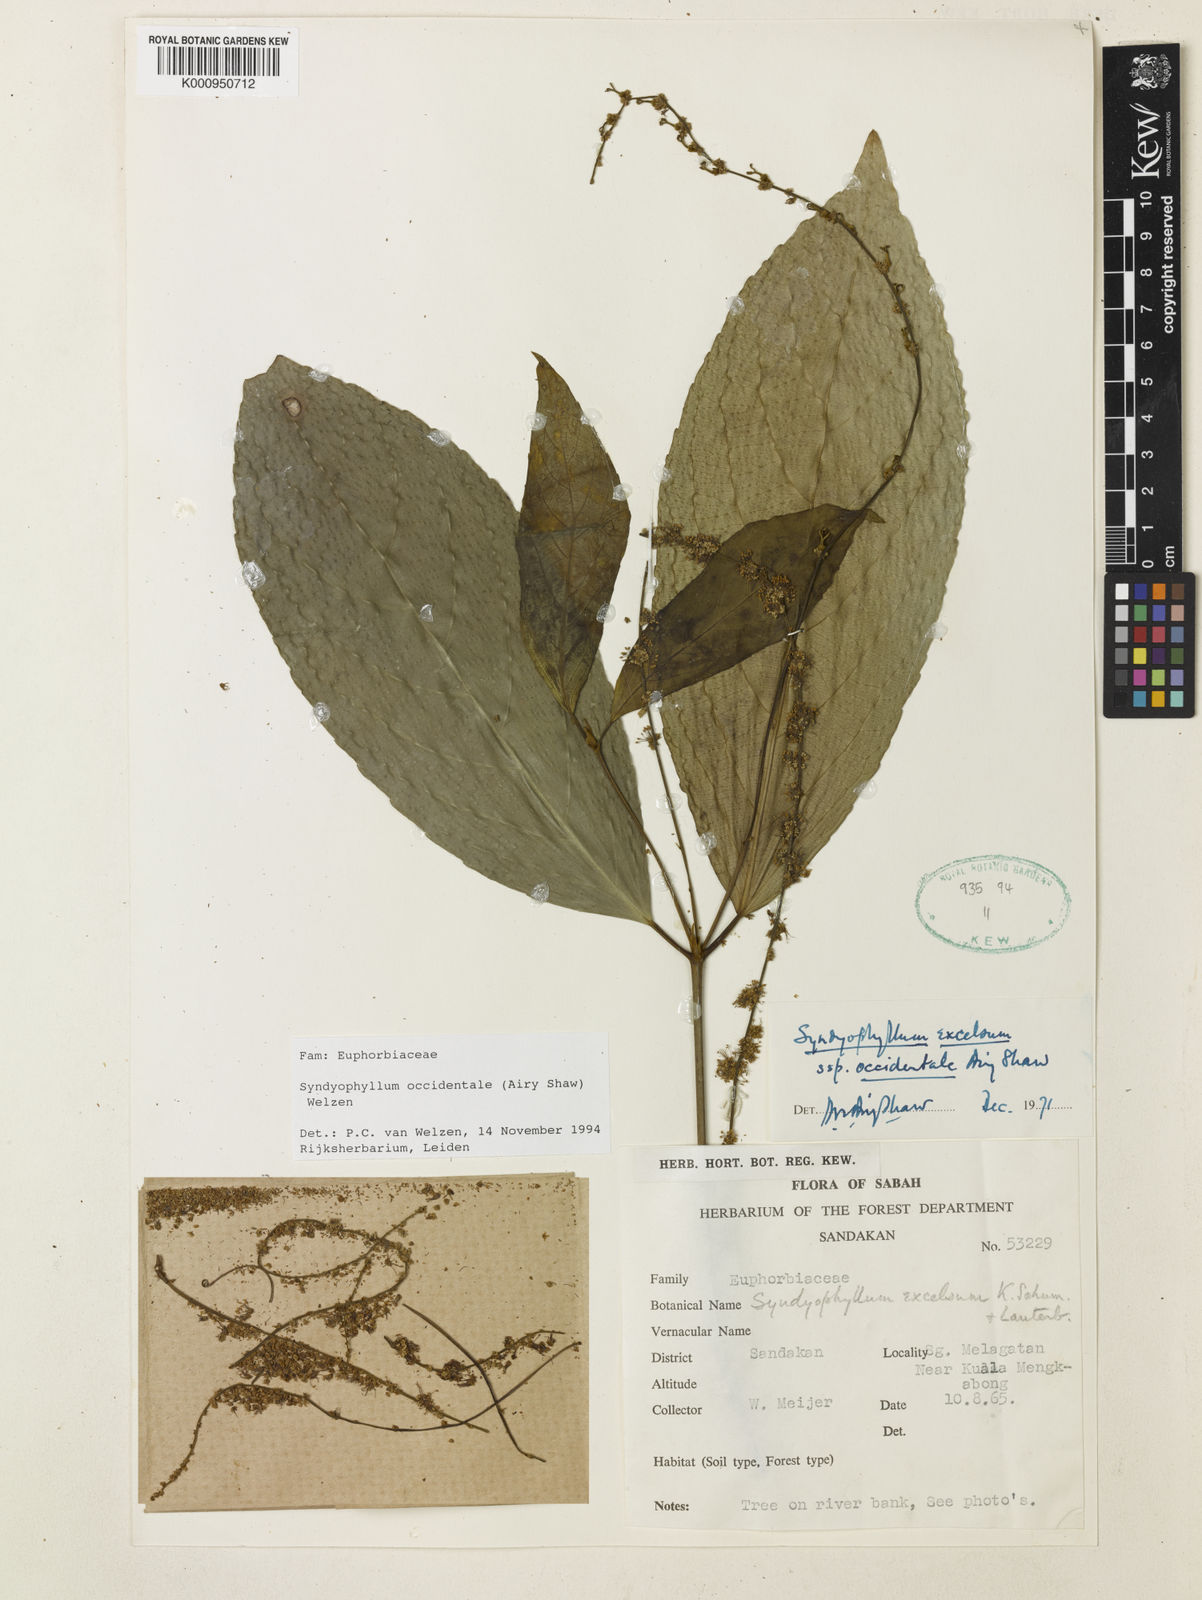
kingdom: Plantae
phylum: Tracheophyta
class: Magnoliopsida
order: Malpighiales
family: Euphorbiaceae
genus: Syndyophyllum
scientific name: Syndyophyllum occidentale
